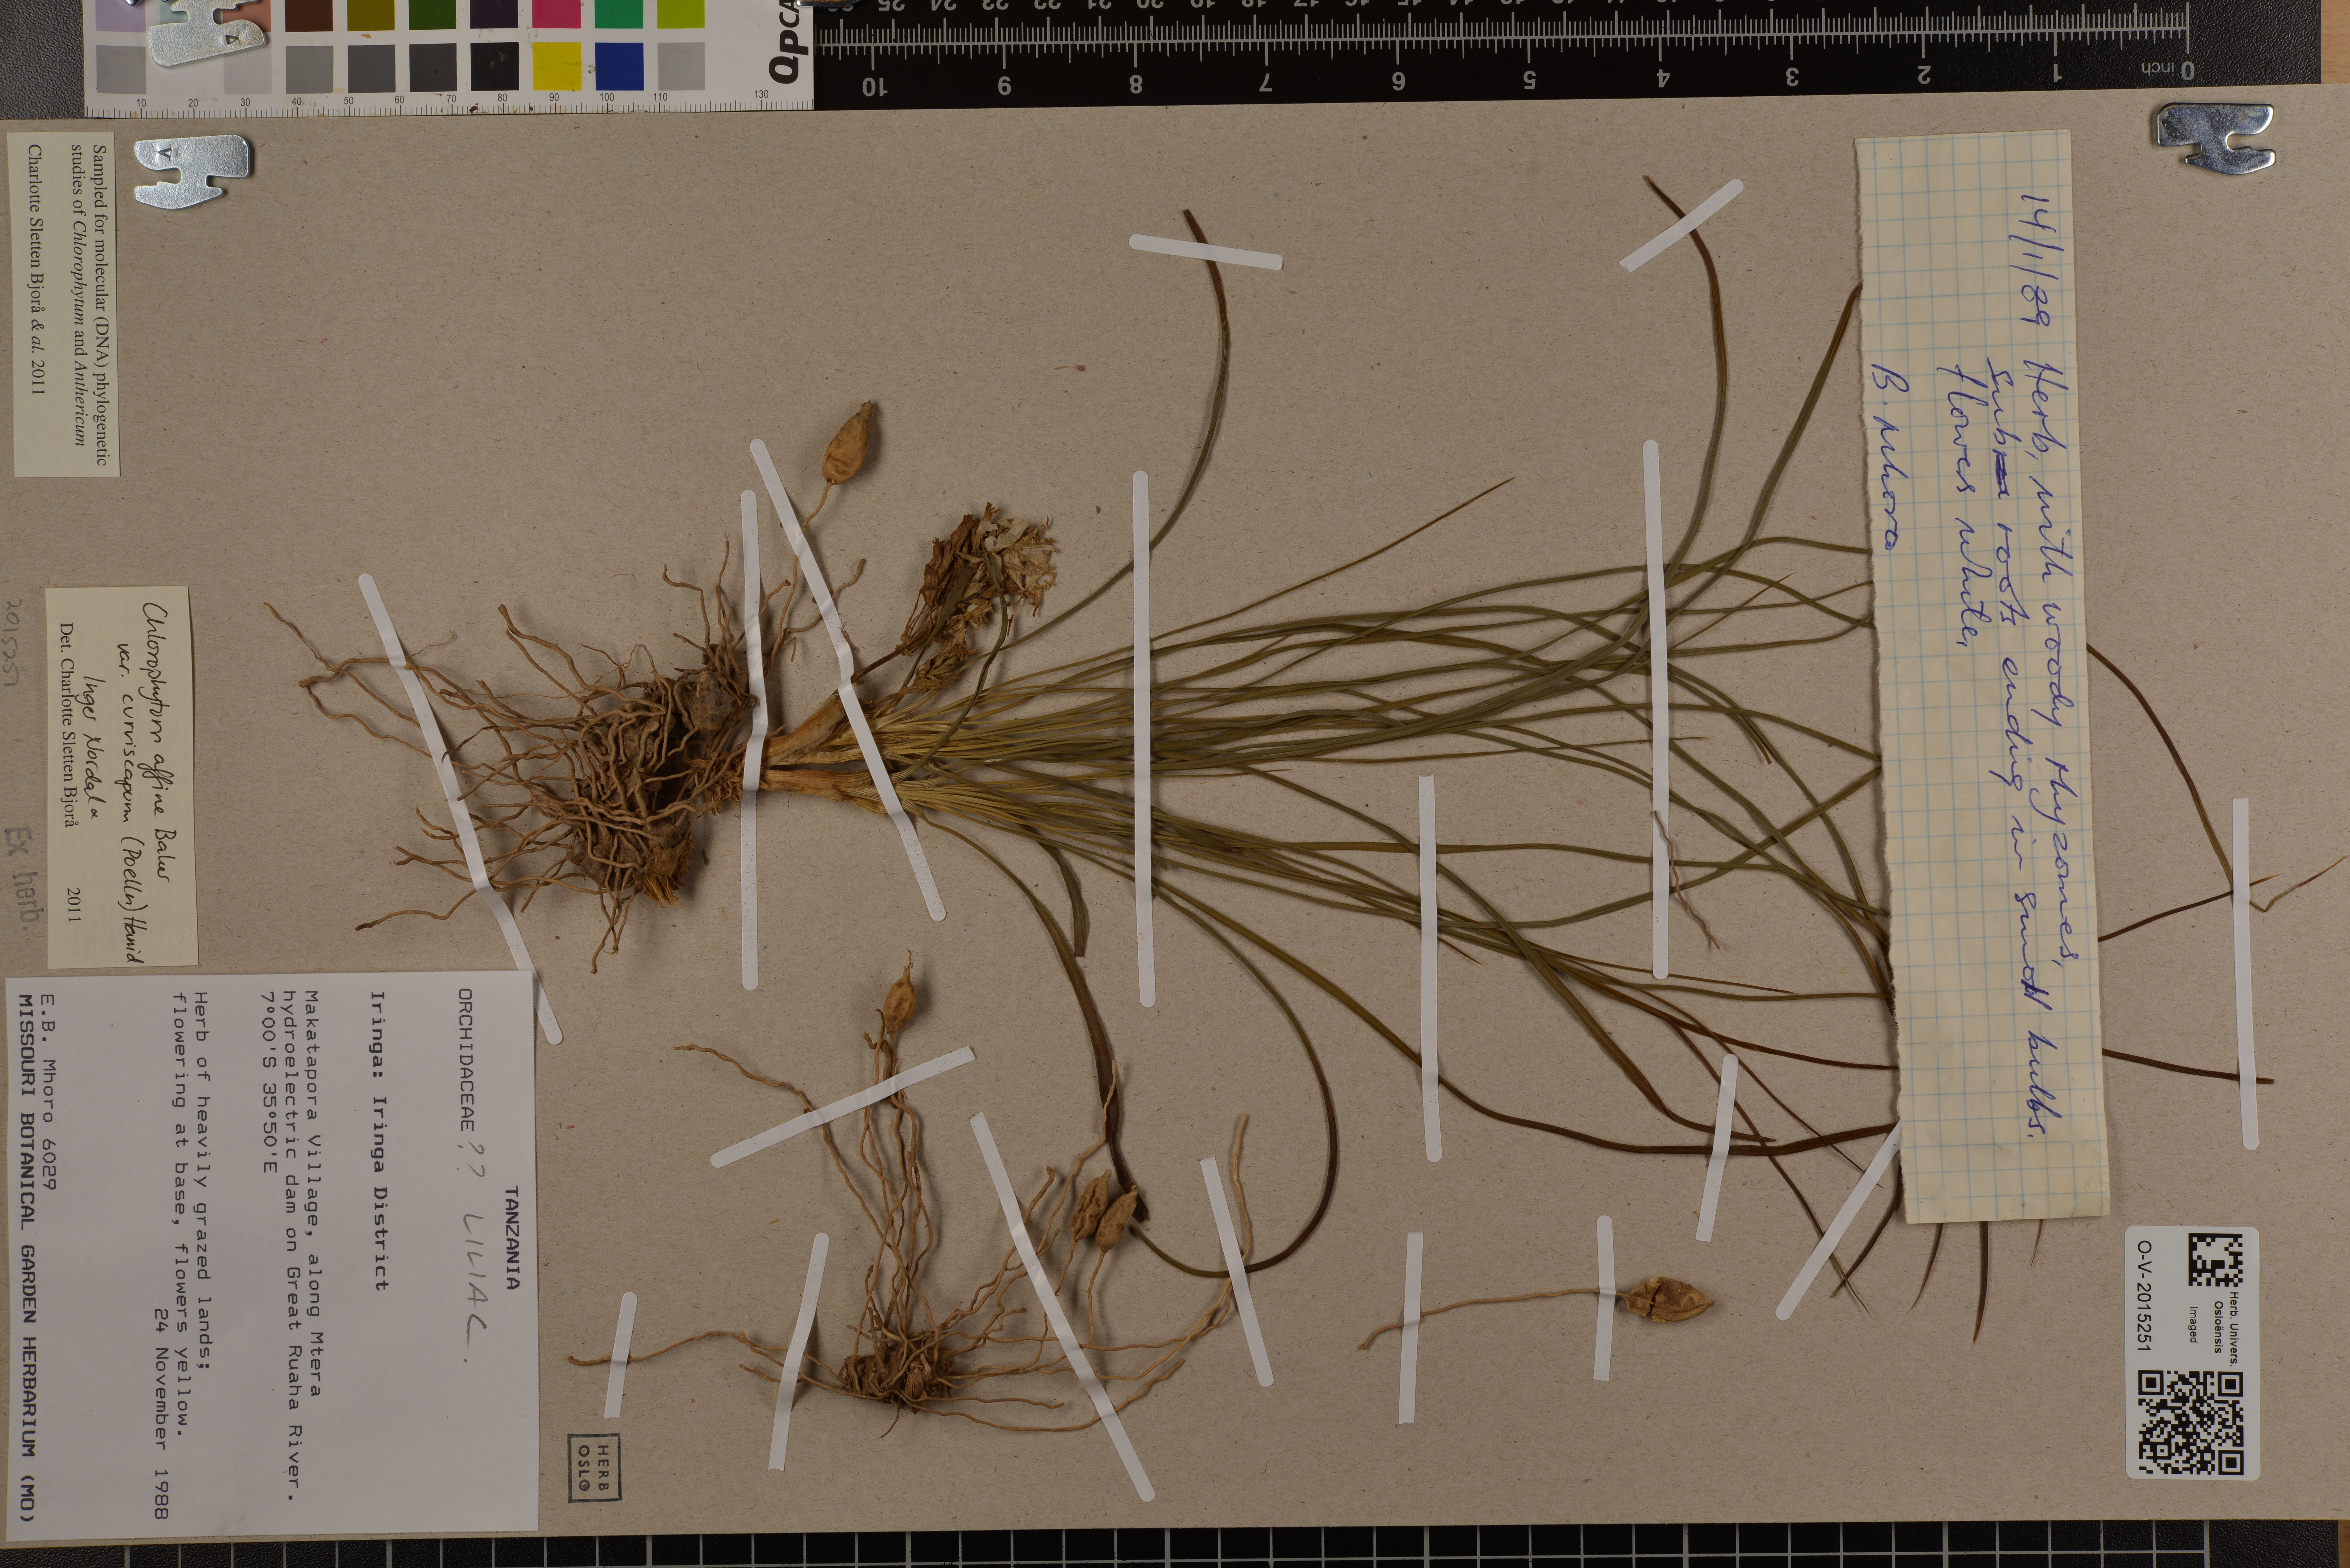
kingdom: Plantae
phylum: Tracheophyta
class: Liliopsida
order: Asparagales
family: Asparagaceae
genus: Chlorophytum
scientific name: Chlorophytum tordense
